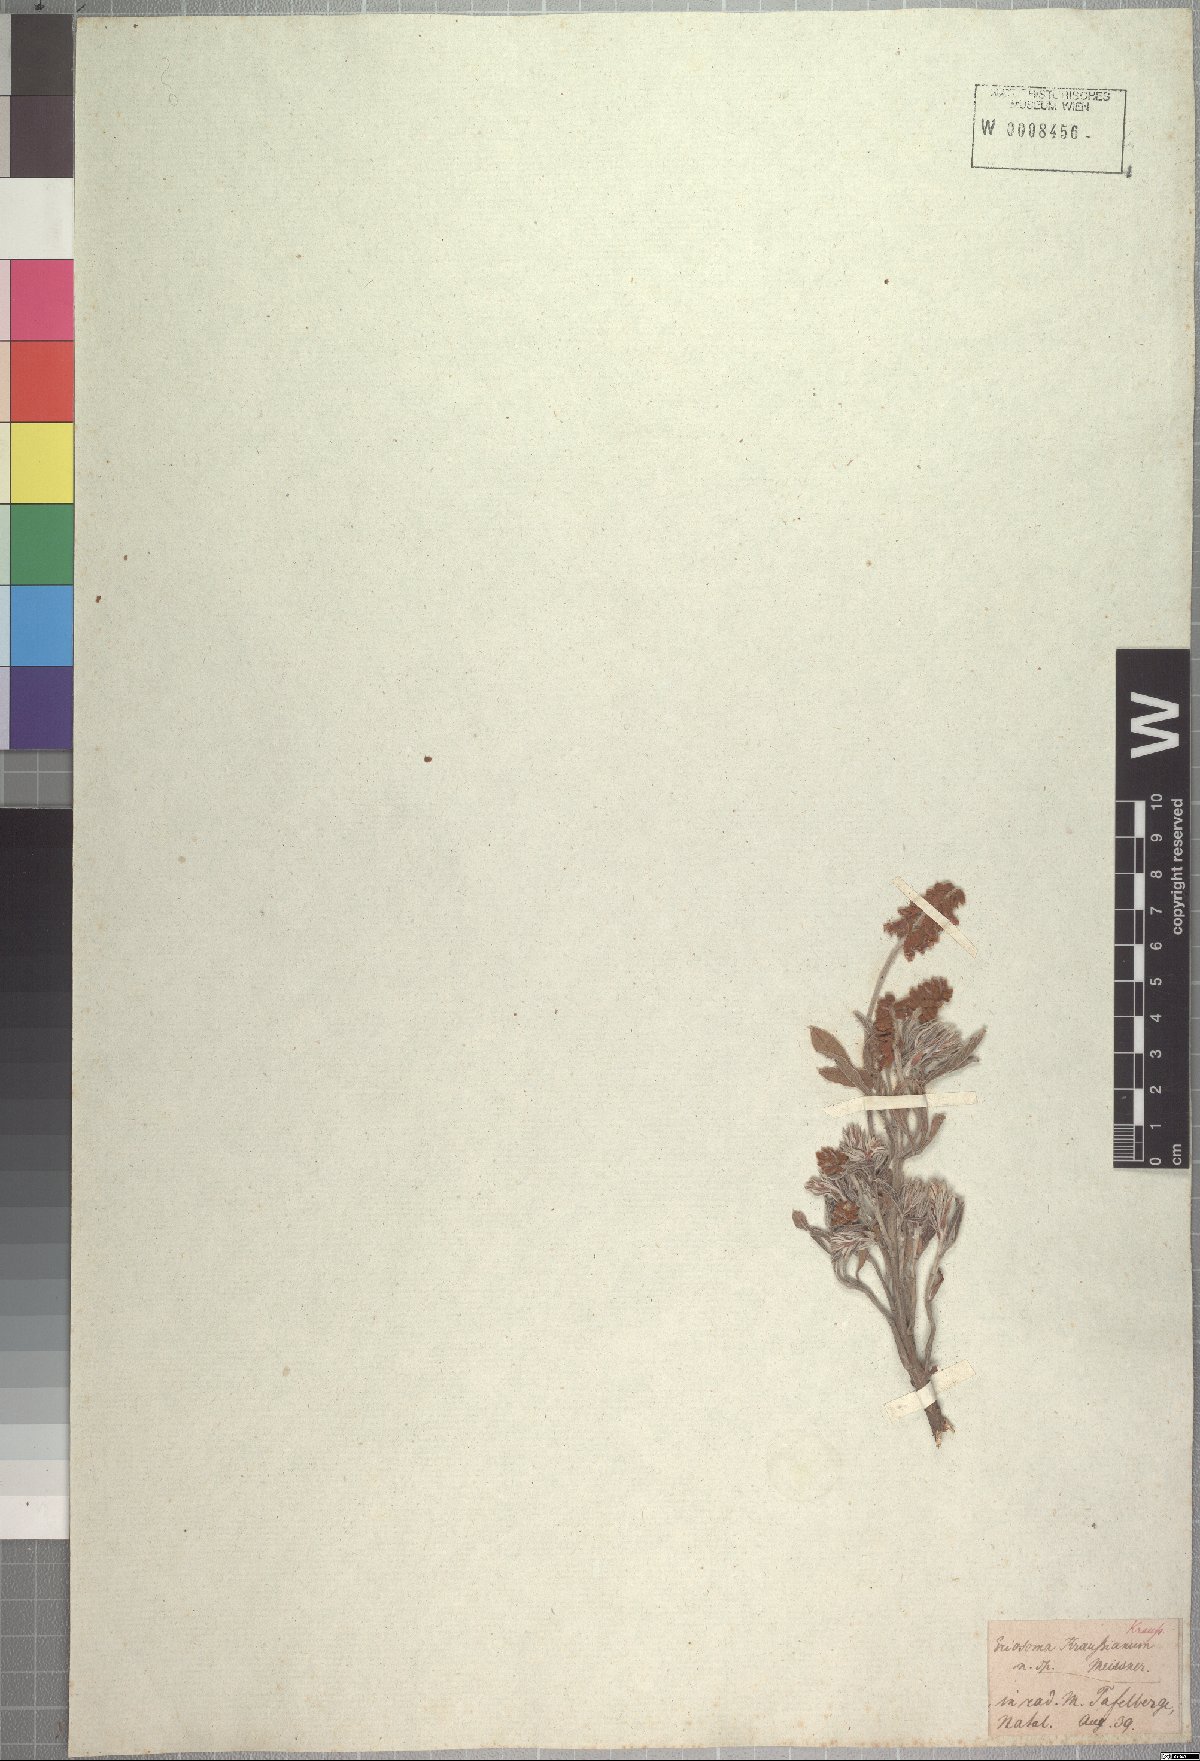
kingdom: Plantae
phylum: Tracheophyta
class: Magnoliopsida
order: Fabales
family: Fabaceae
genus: Eriosema
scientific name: Eriosema kraussianum
